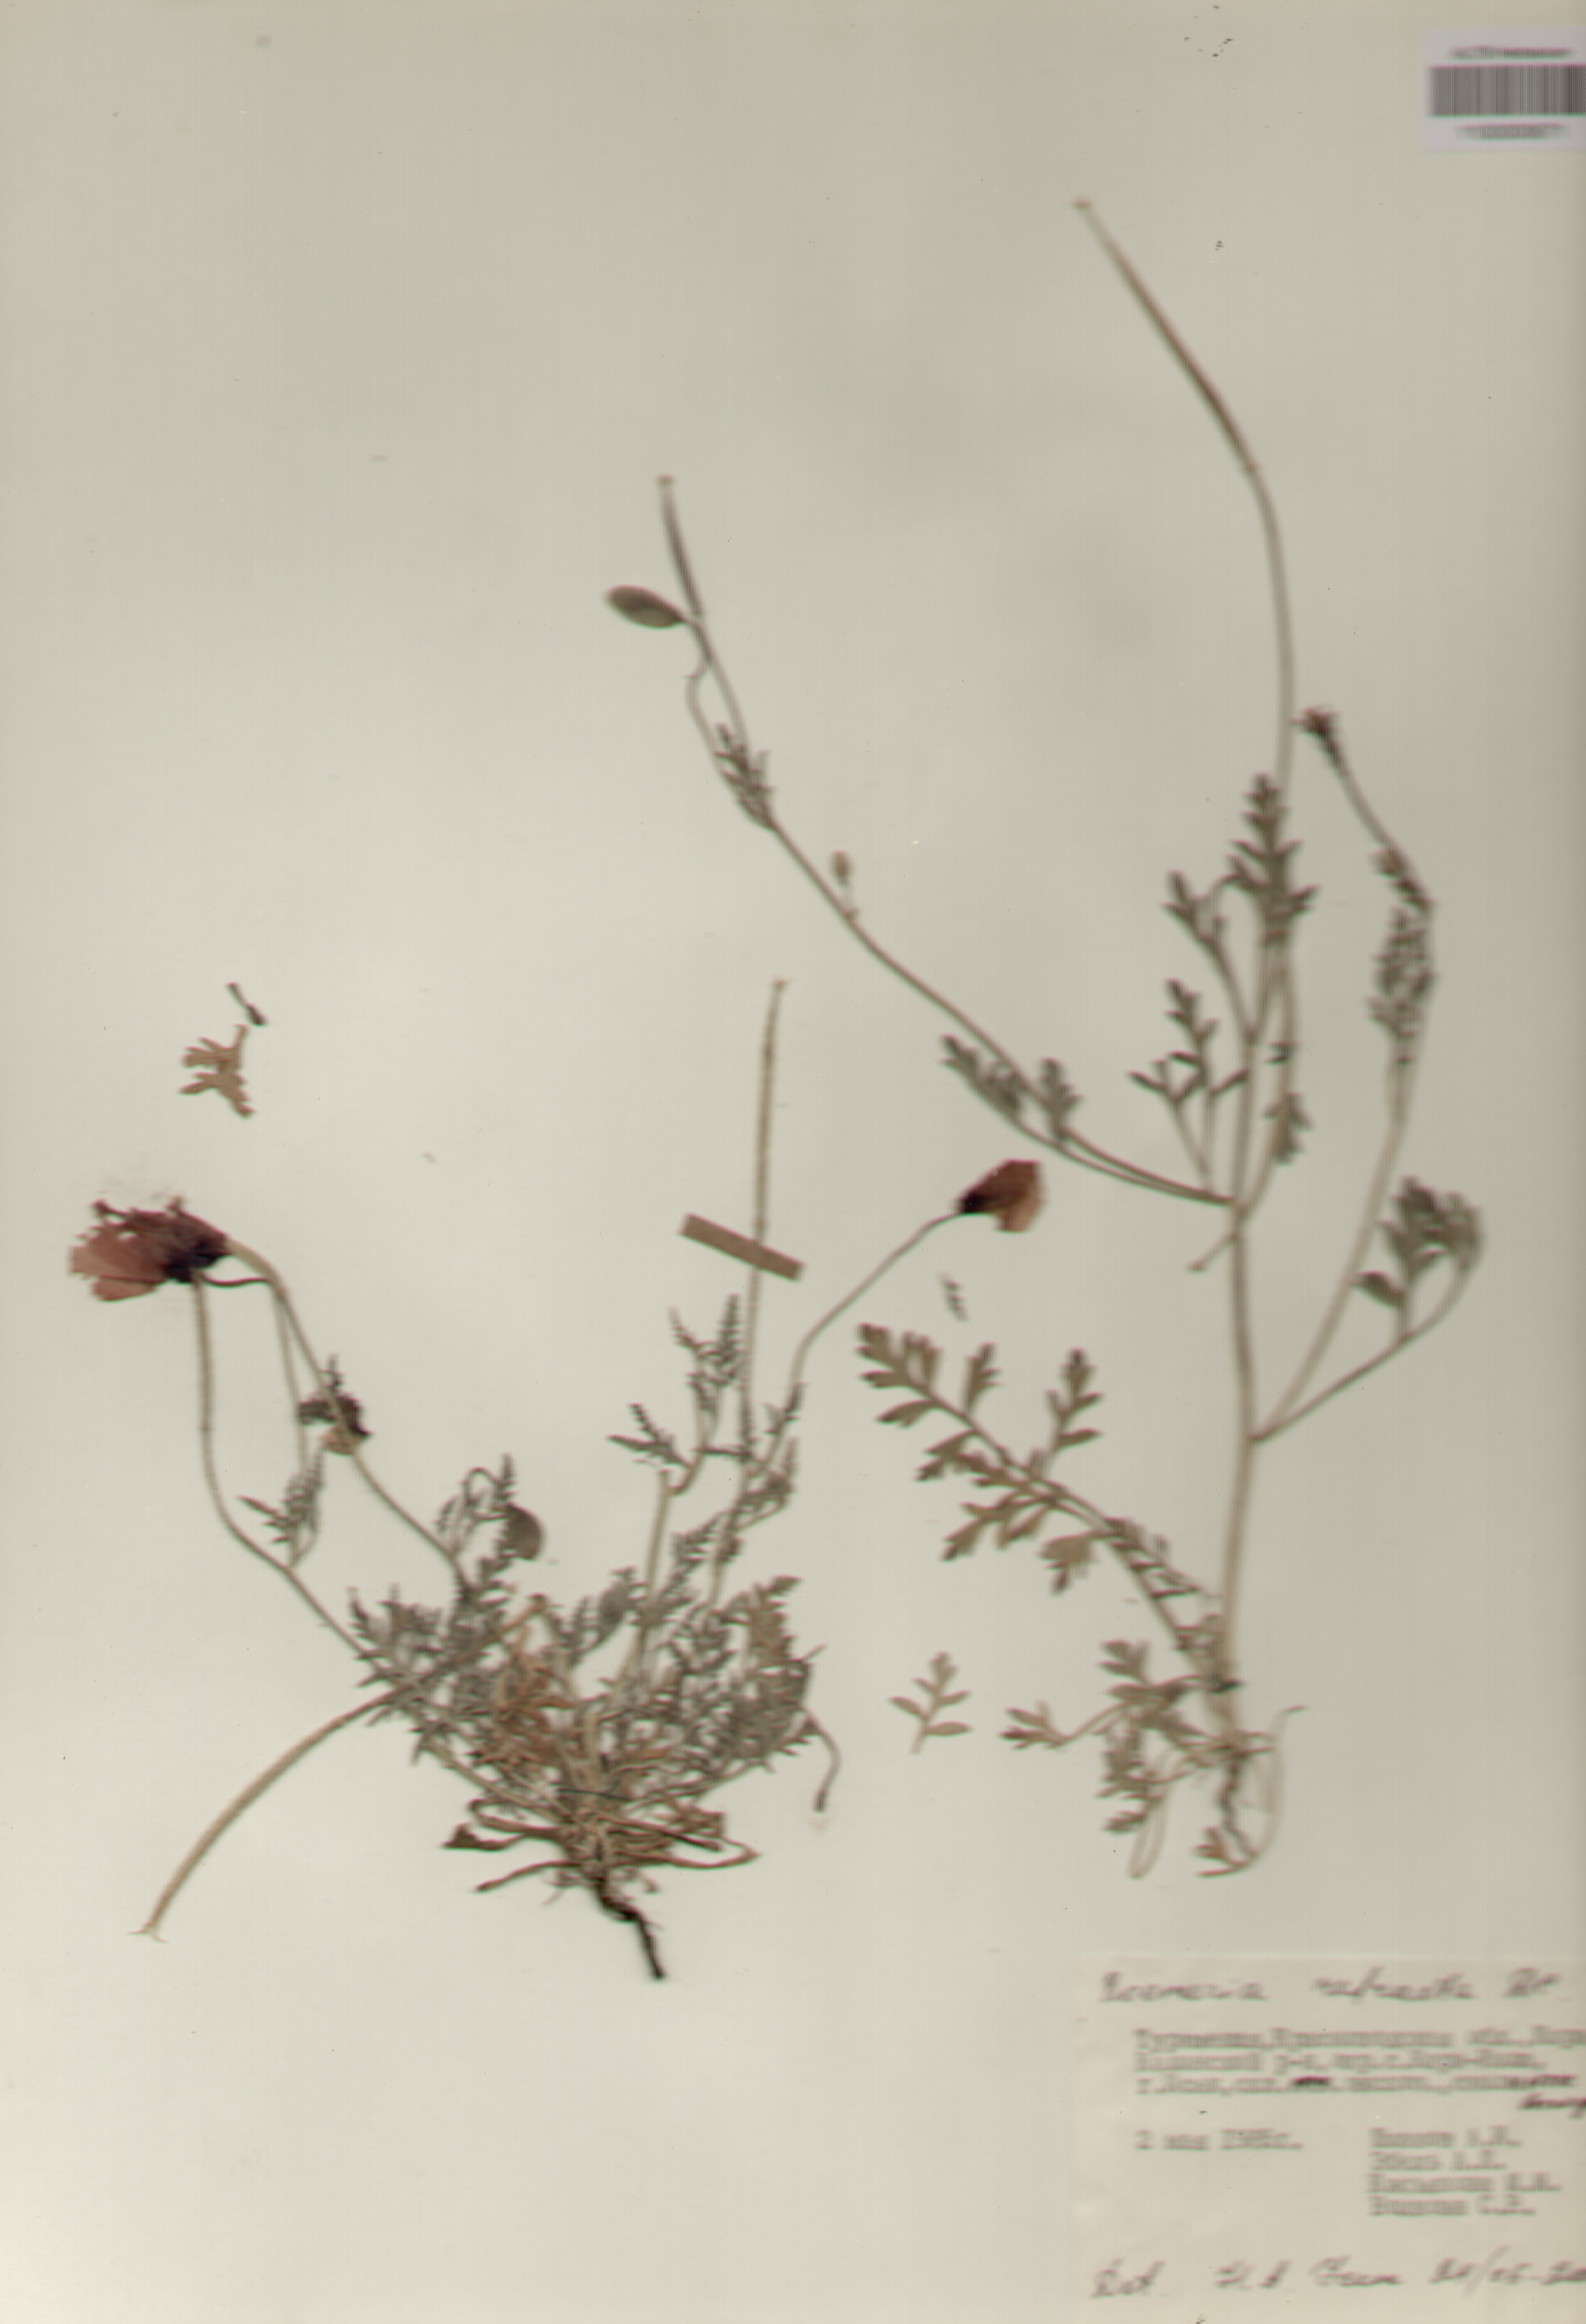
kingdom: Plantae
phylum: Tracheophyta
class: Magnoliopsida
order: Ranunculales
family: Papaveraceae
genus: Roemeria
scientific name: Roemeria refracta
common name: Spotted asian poppy
